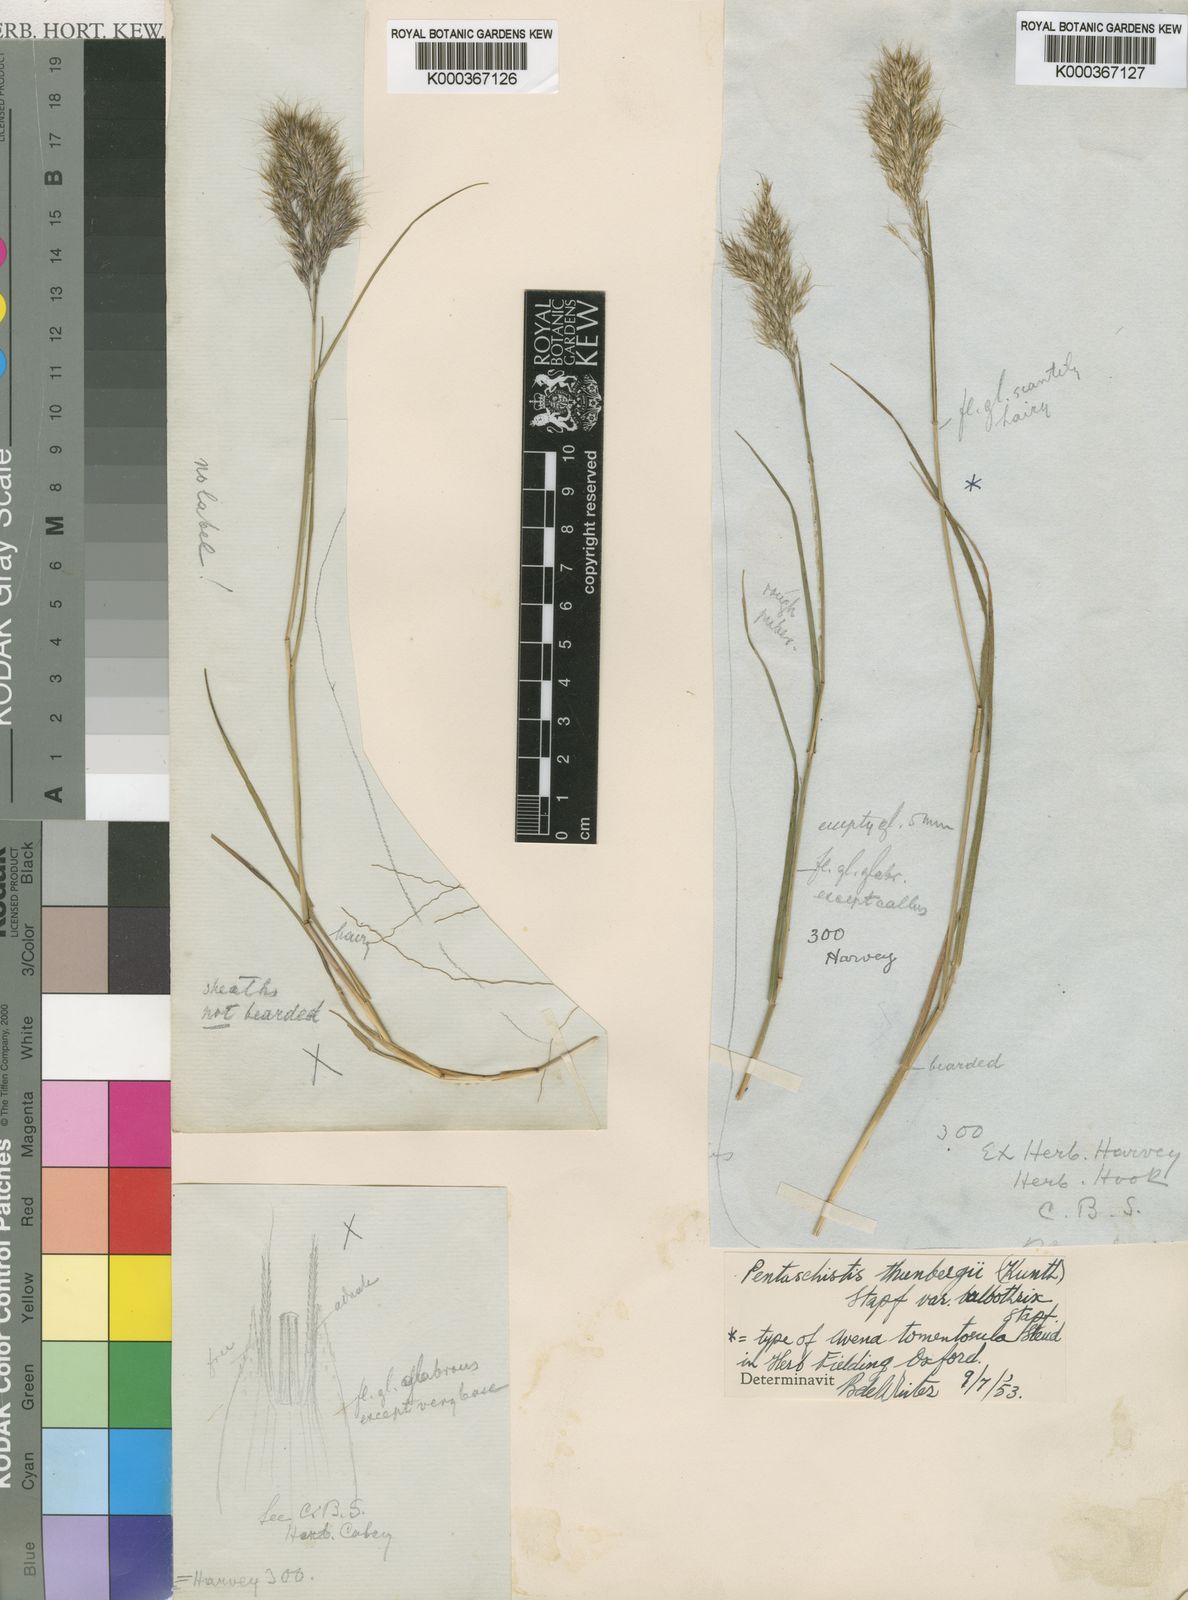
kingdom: Plantae
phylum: Tracheophyta
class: Liliopsida
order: Poales
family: Poaceae
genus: Pentameris
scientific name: Pentameris triseta
